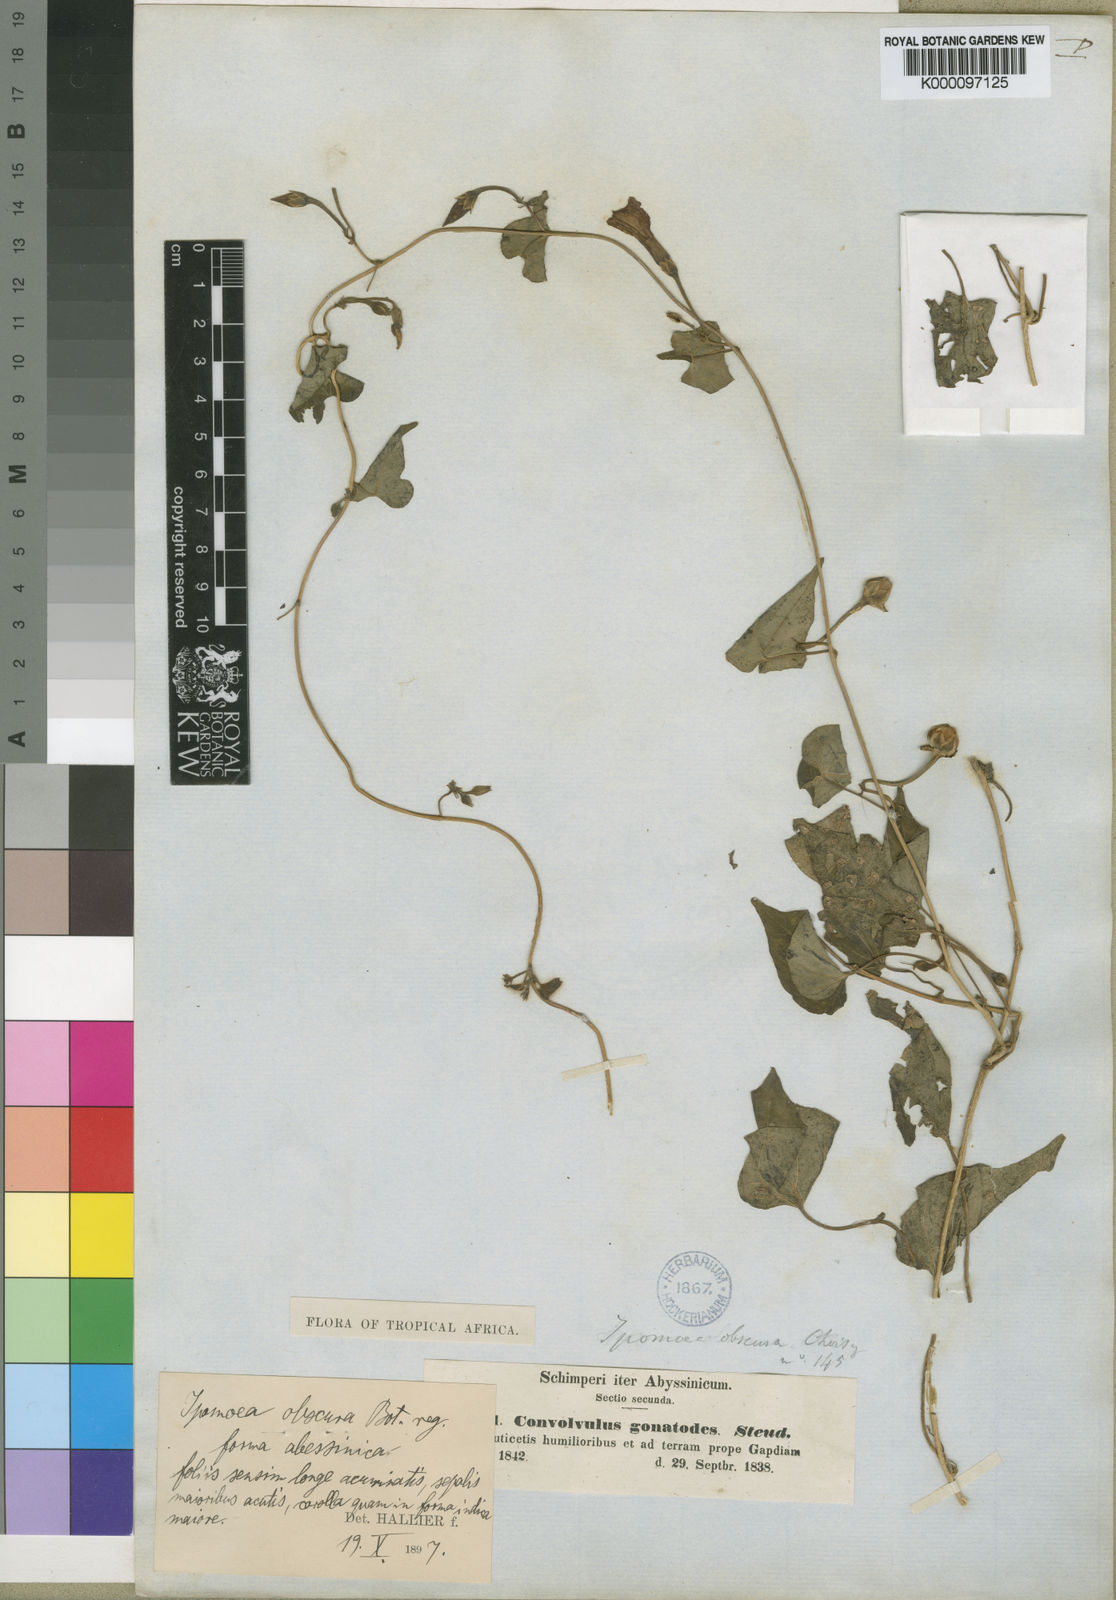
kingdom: Plantae
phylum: Tracheophyta
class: Magnoliopsida
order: Solanales
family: Convolvulaceae
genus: Ipomoea
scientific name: Ipomoea
